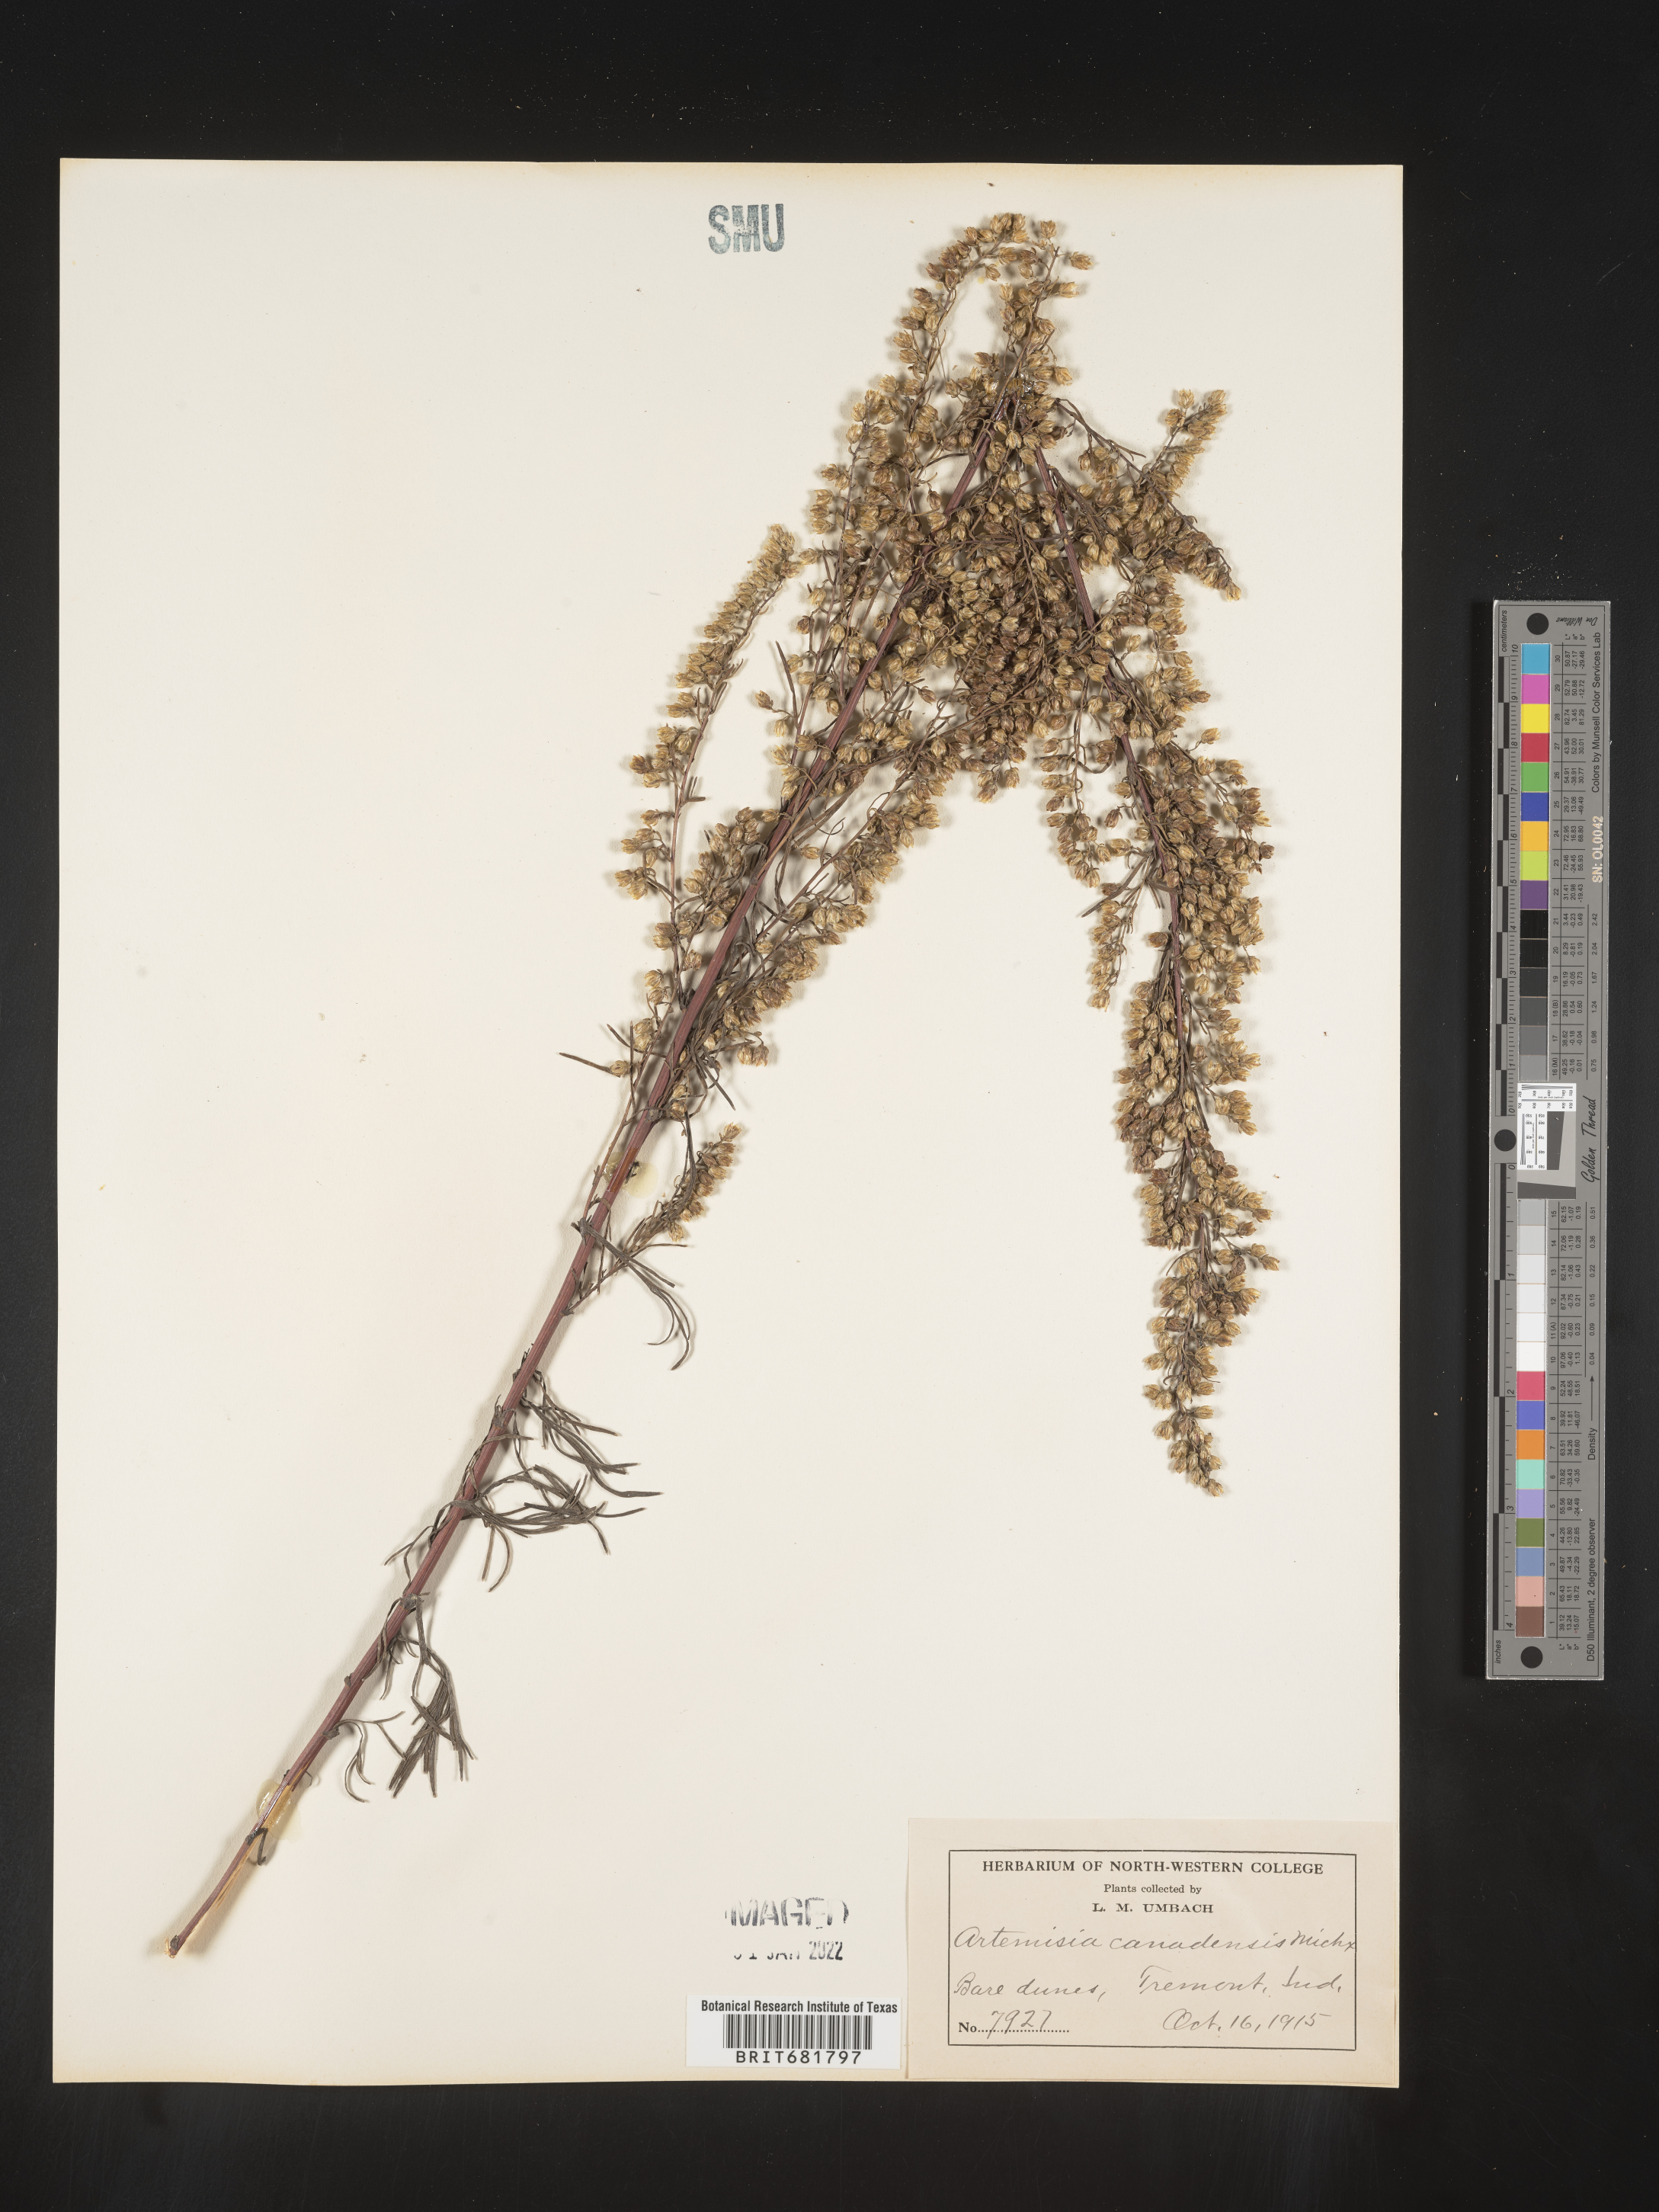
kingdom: Plantae
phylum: Tracheophyta
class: Magnoliopsida
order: Asterales
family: Asteraceae
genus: Artemisia
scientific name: Artemisia campestris
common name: Field wormwood
